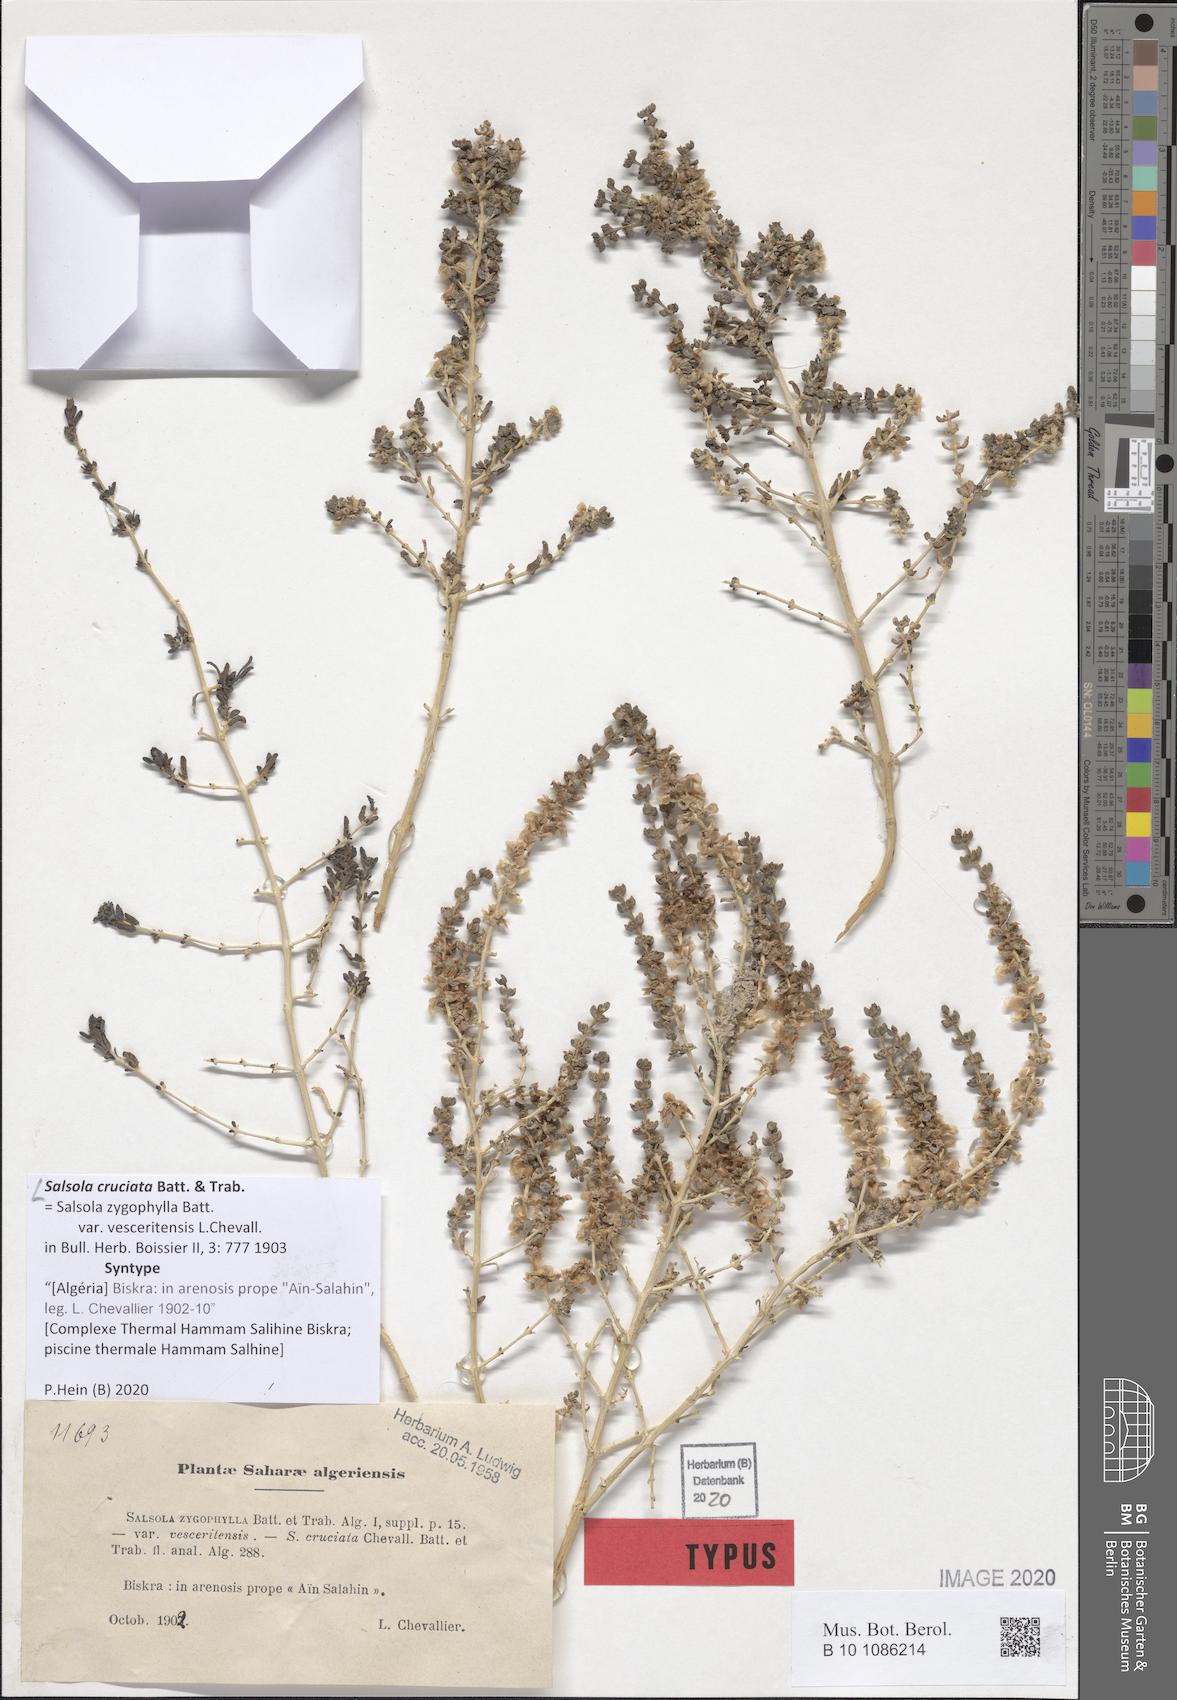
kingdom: Plantae
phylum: Tracheophyta
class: Magnoliopsida
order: Caryophyllales
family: Amaranthaceae
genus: Salsola
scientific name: Salsola cruciata
